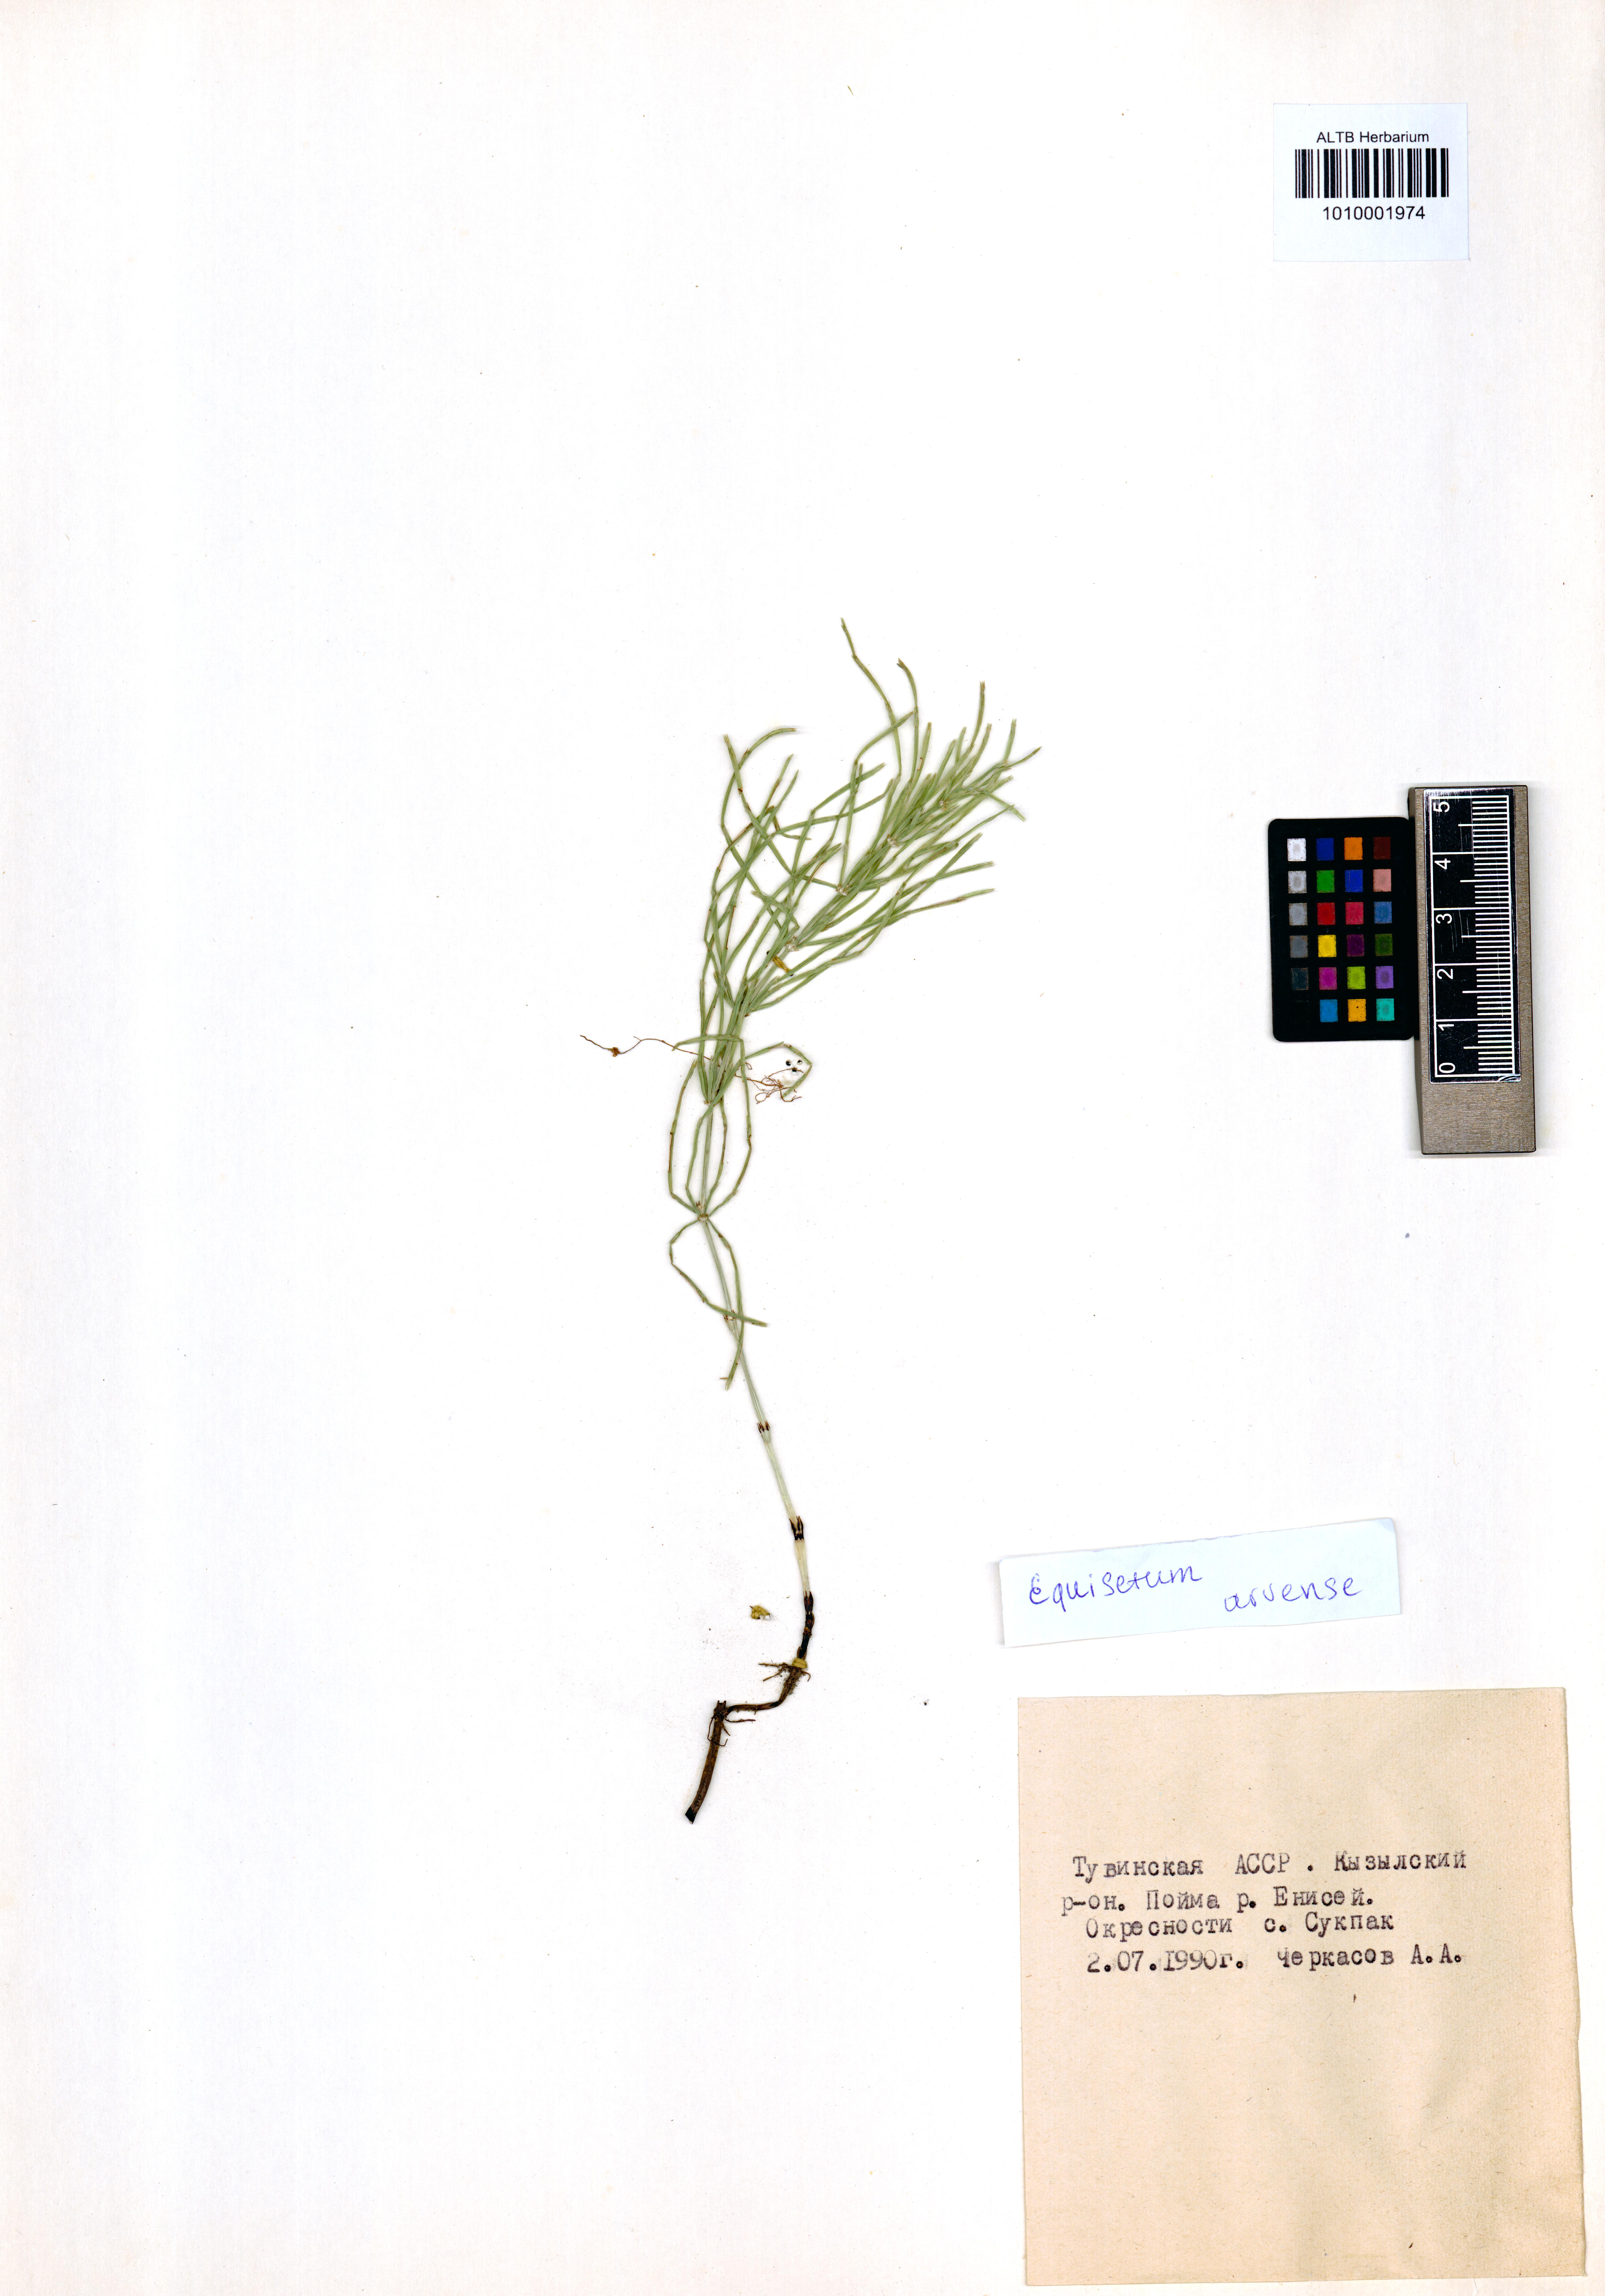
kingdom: Plantae
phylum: Tracheophyta
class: Polypodiopsida
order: Equisetales
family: Equisetaceae
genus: Equisetum
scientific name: Equisetum arvense
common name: Field horsetail
